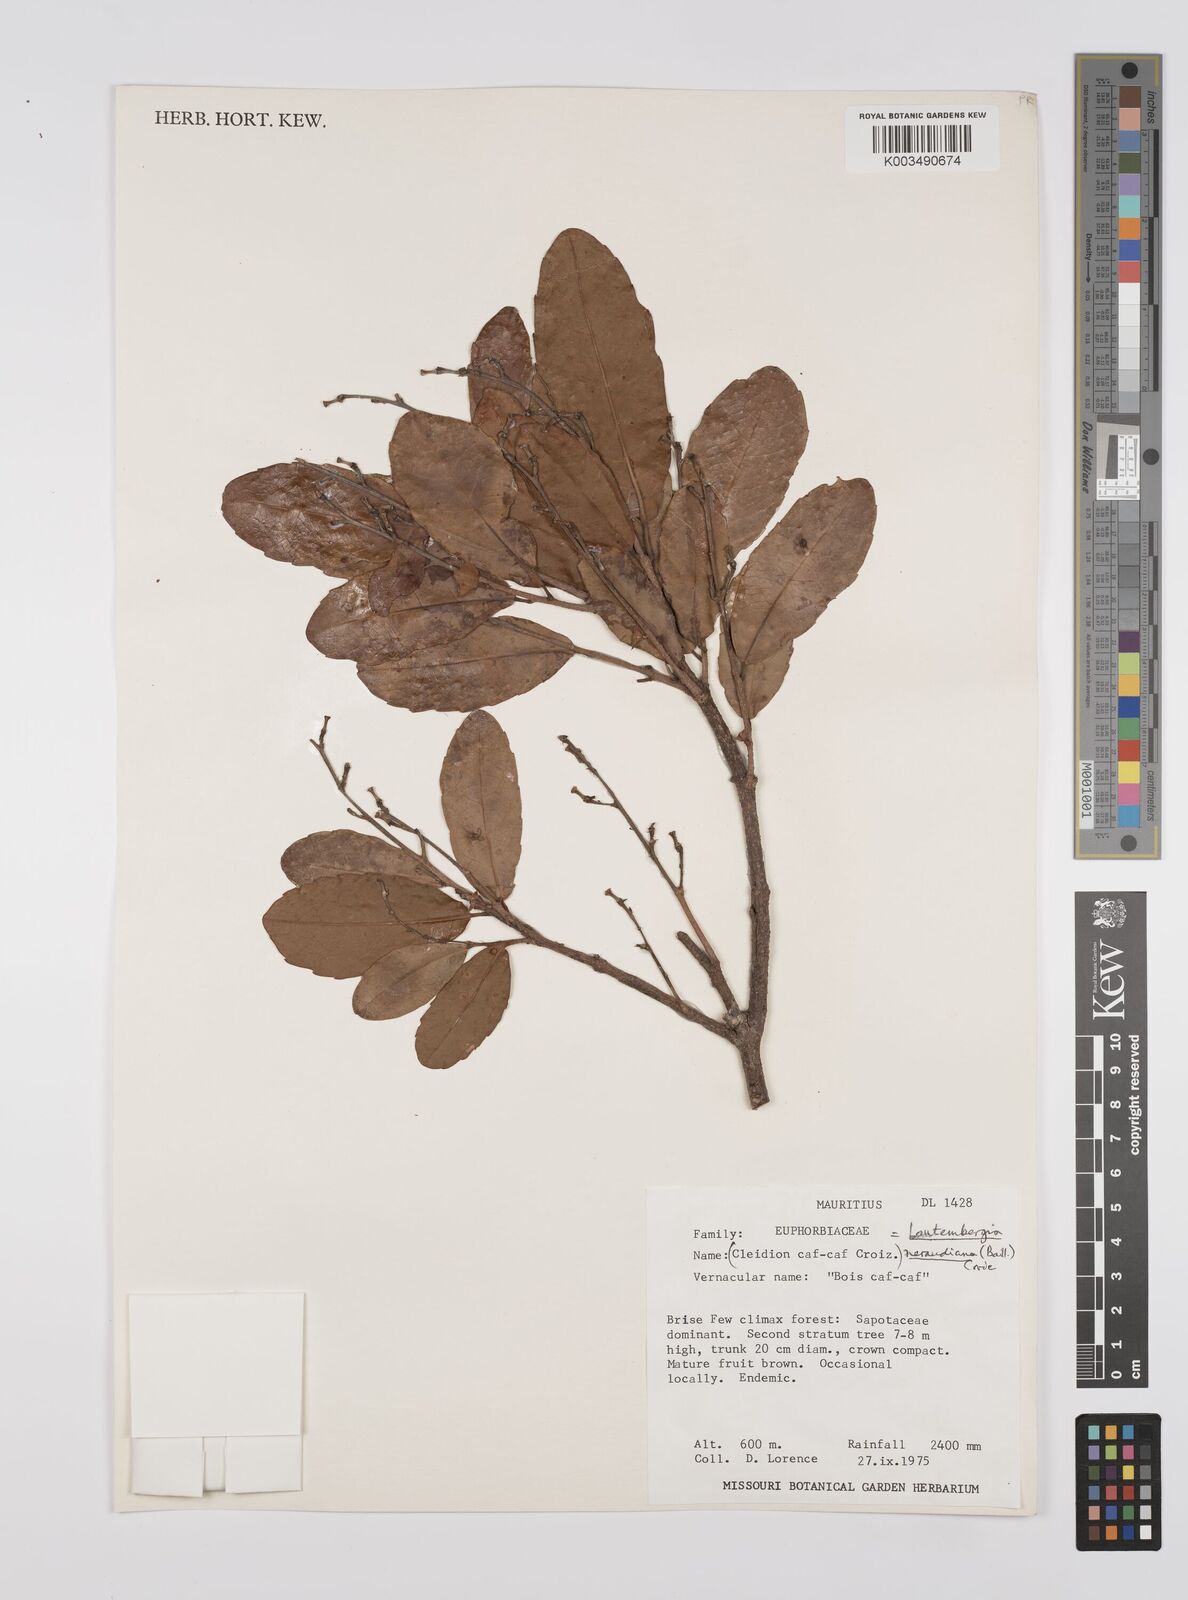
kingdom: Plantae
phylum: Tracheophyta
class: Magnoliopsida
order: Malpighiales
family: Euphorbiaceae
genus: Orfilea
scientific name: Orfilea neraudiana
